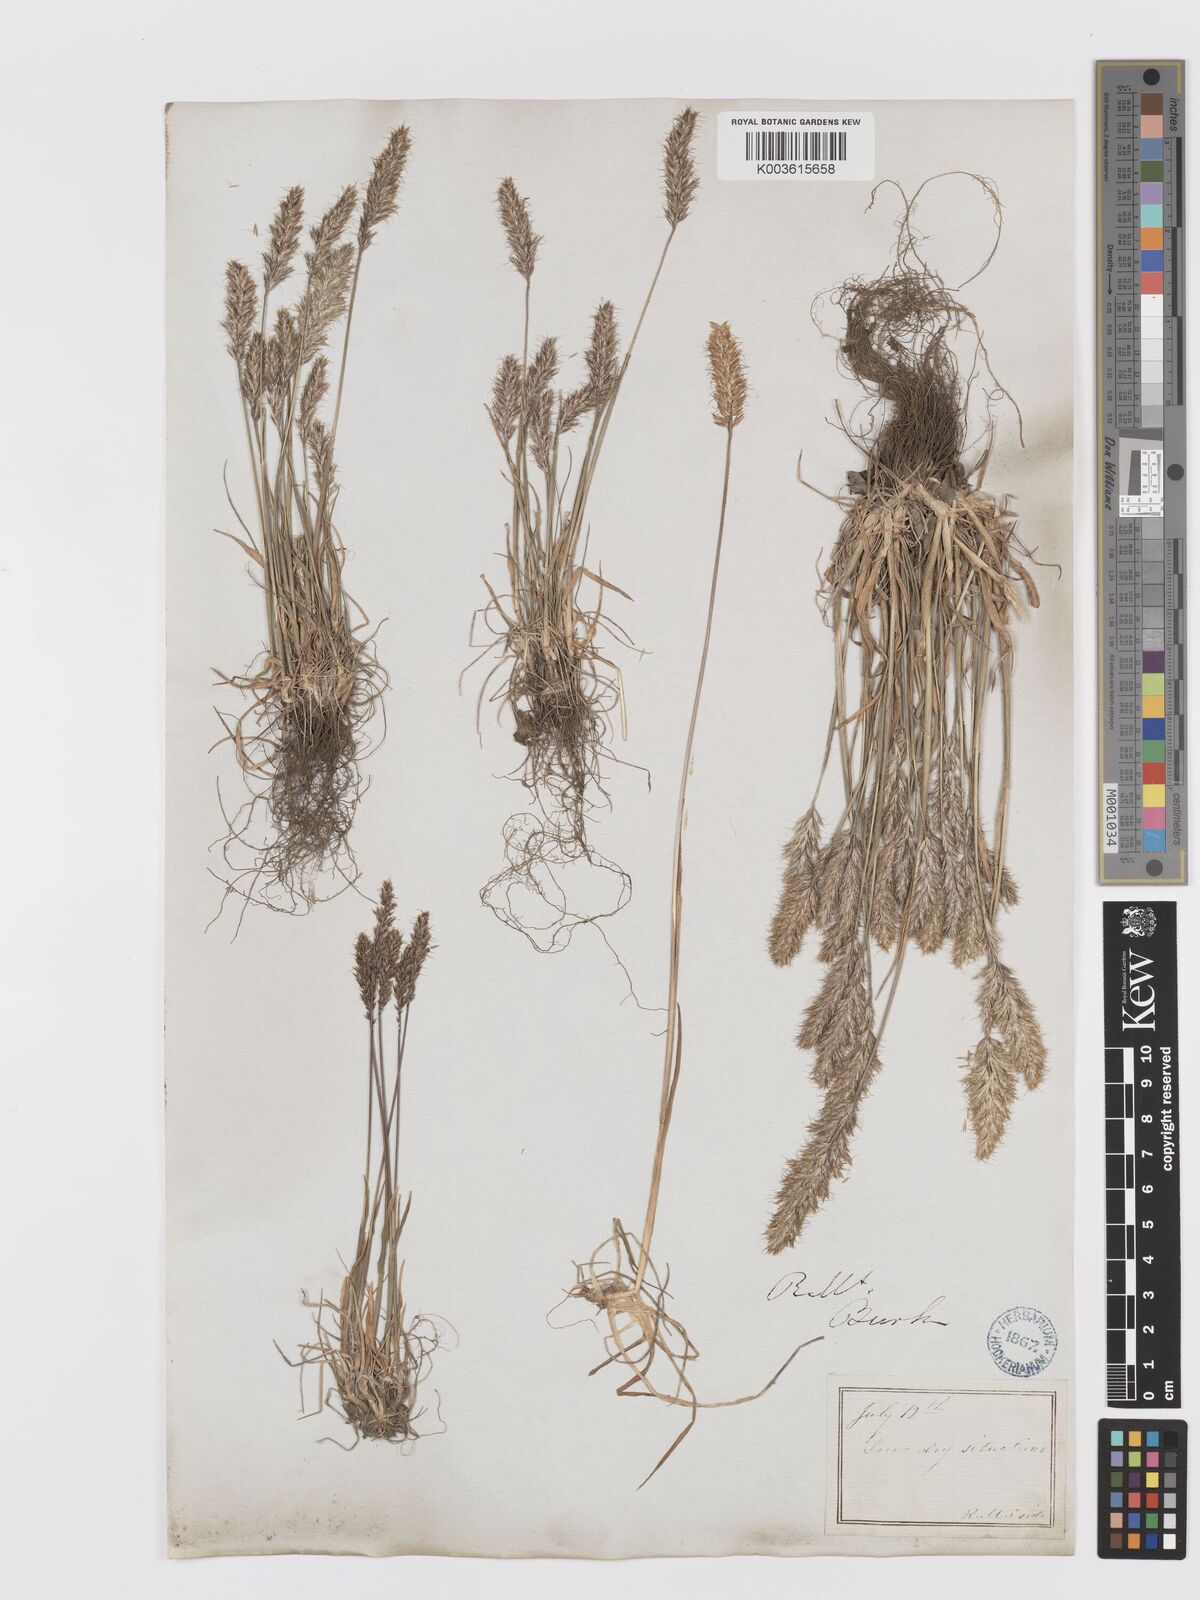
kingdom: Plantae
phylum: Tracheophyta
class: Liliopsida
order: Poales
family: Poaceae
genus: Koeleria
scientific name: Koeleria spicata
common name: Mountain trisetum
